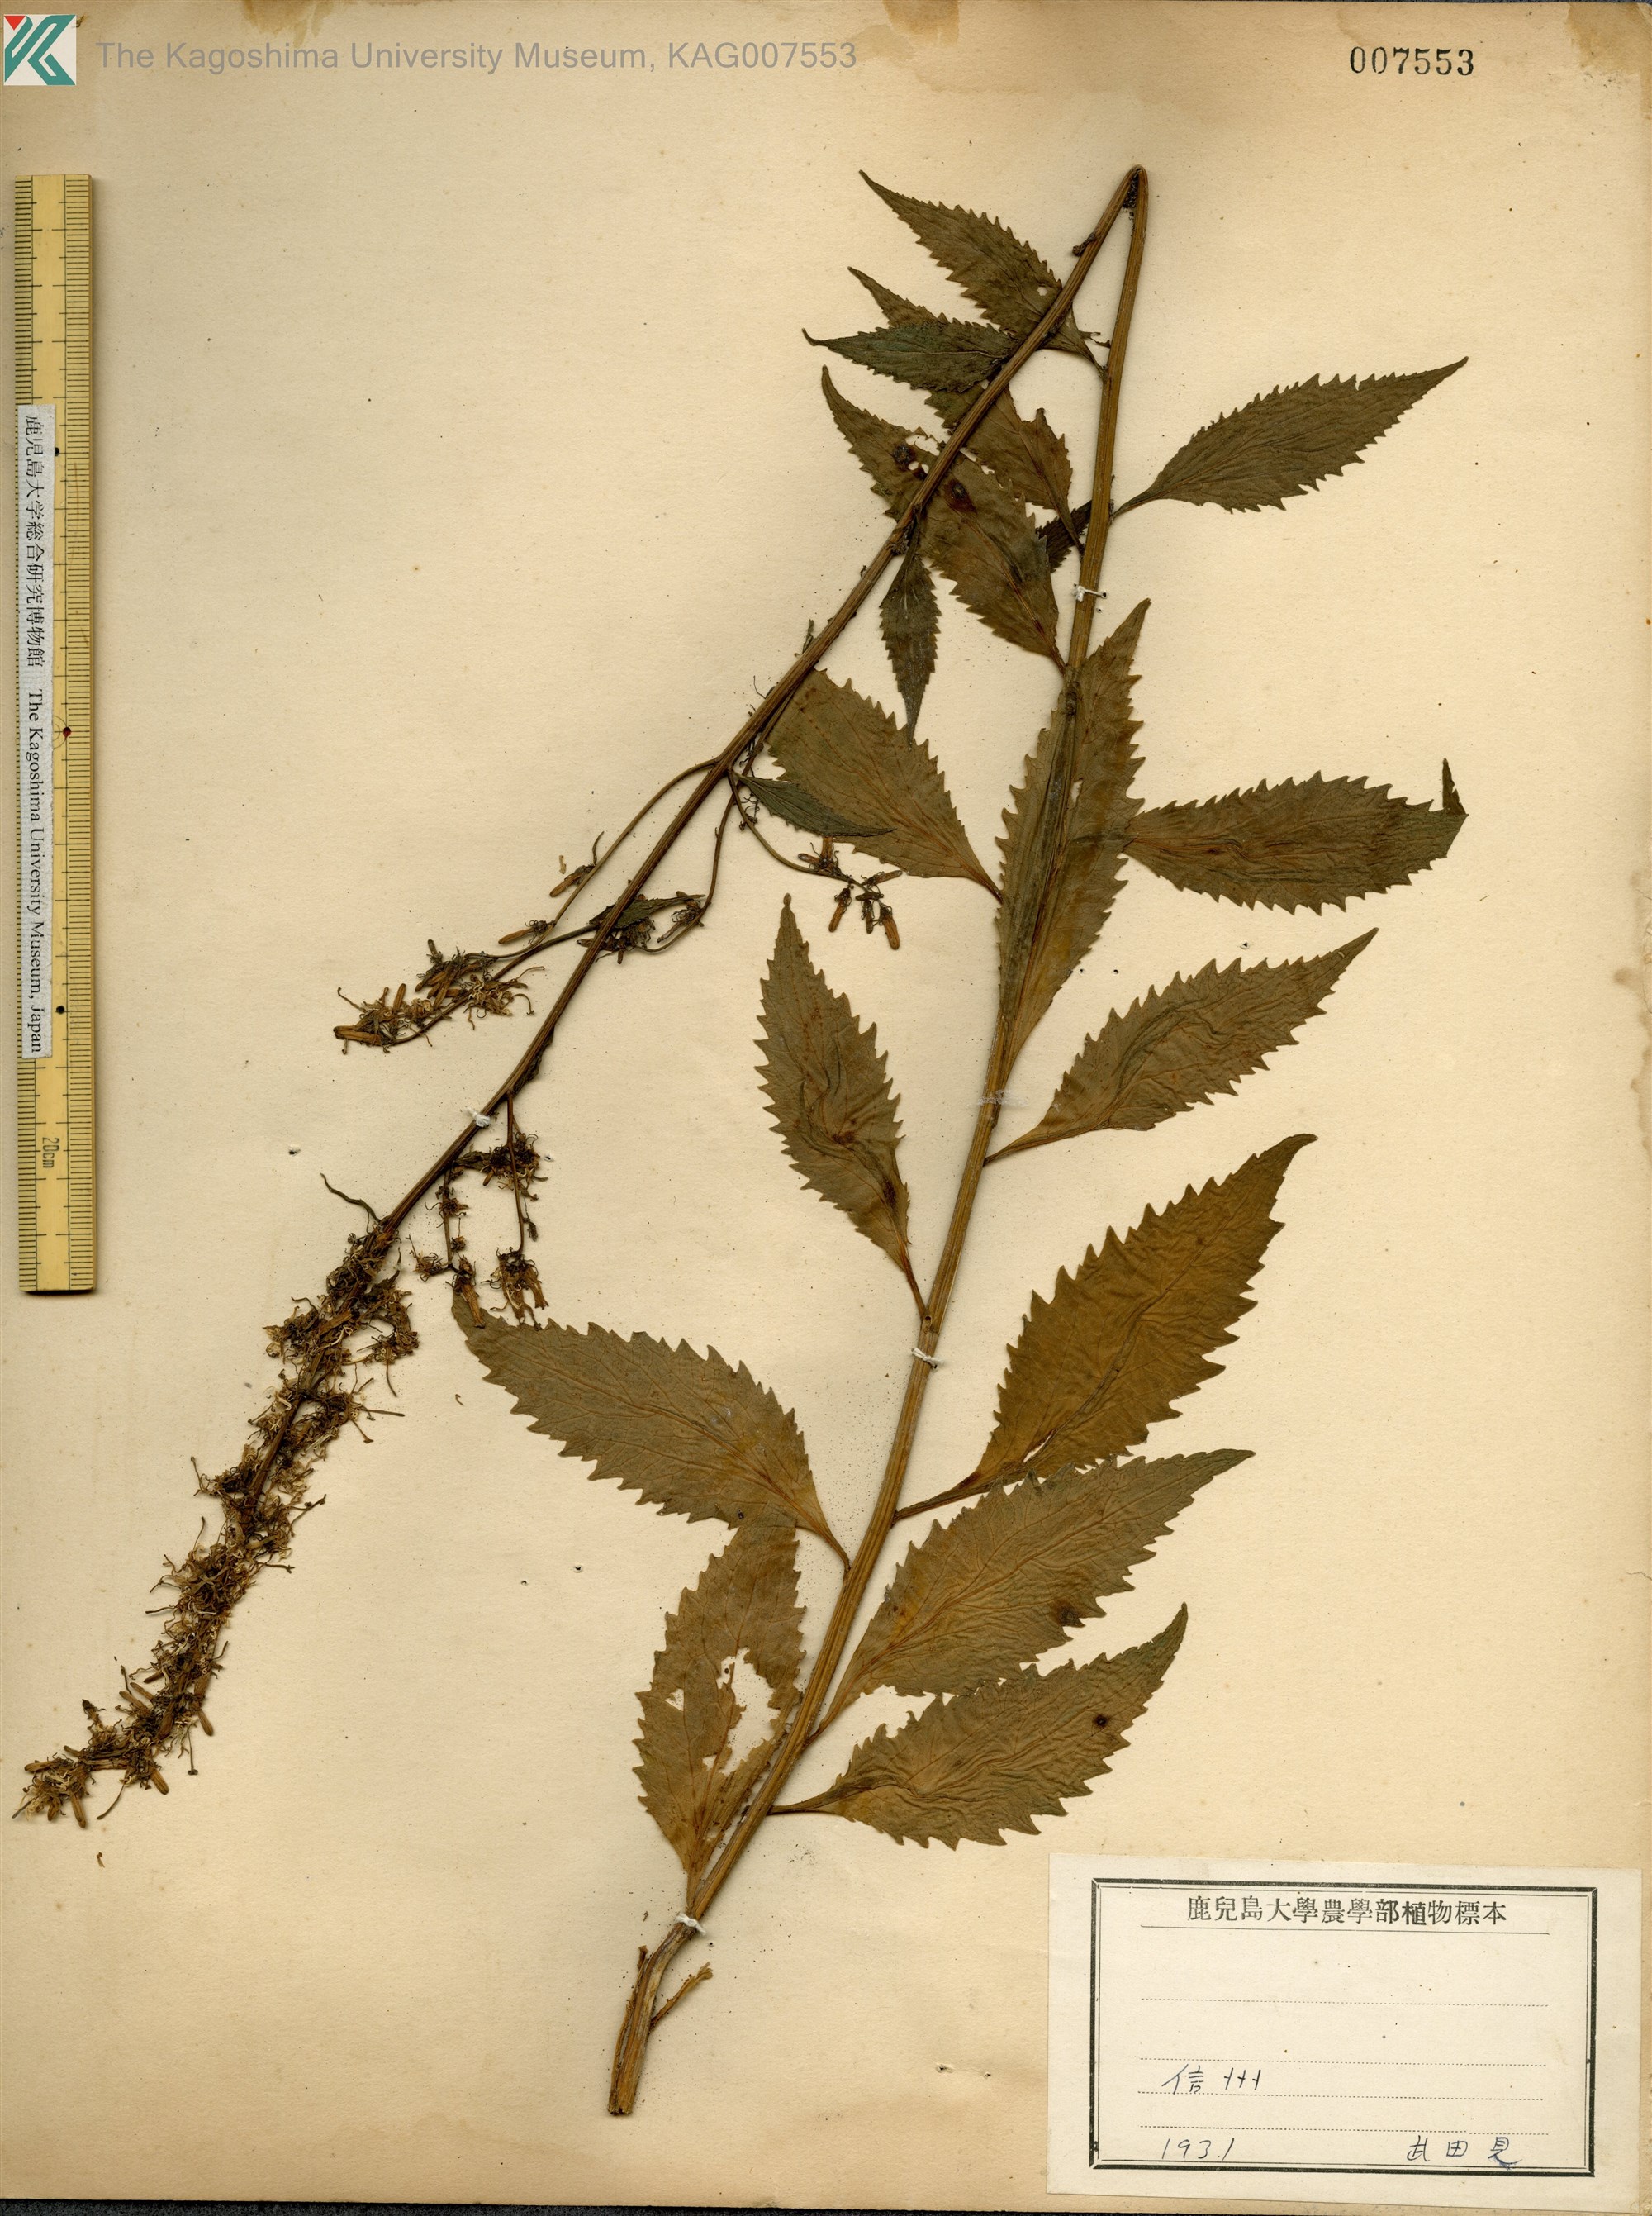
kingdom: Plantae
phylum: Tracheophyta
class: Magnoliopsida
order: Asterales
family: Campanulaceae
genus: Asyneuma
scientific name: Asyneuma japonicum
